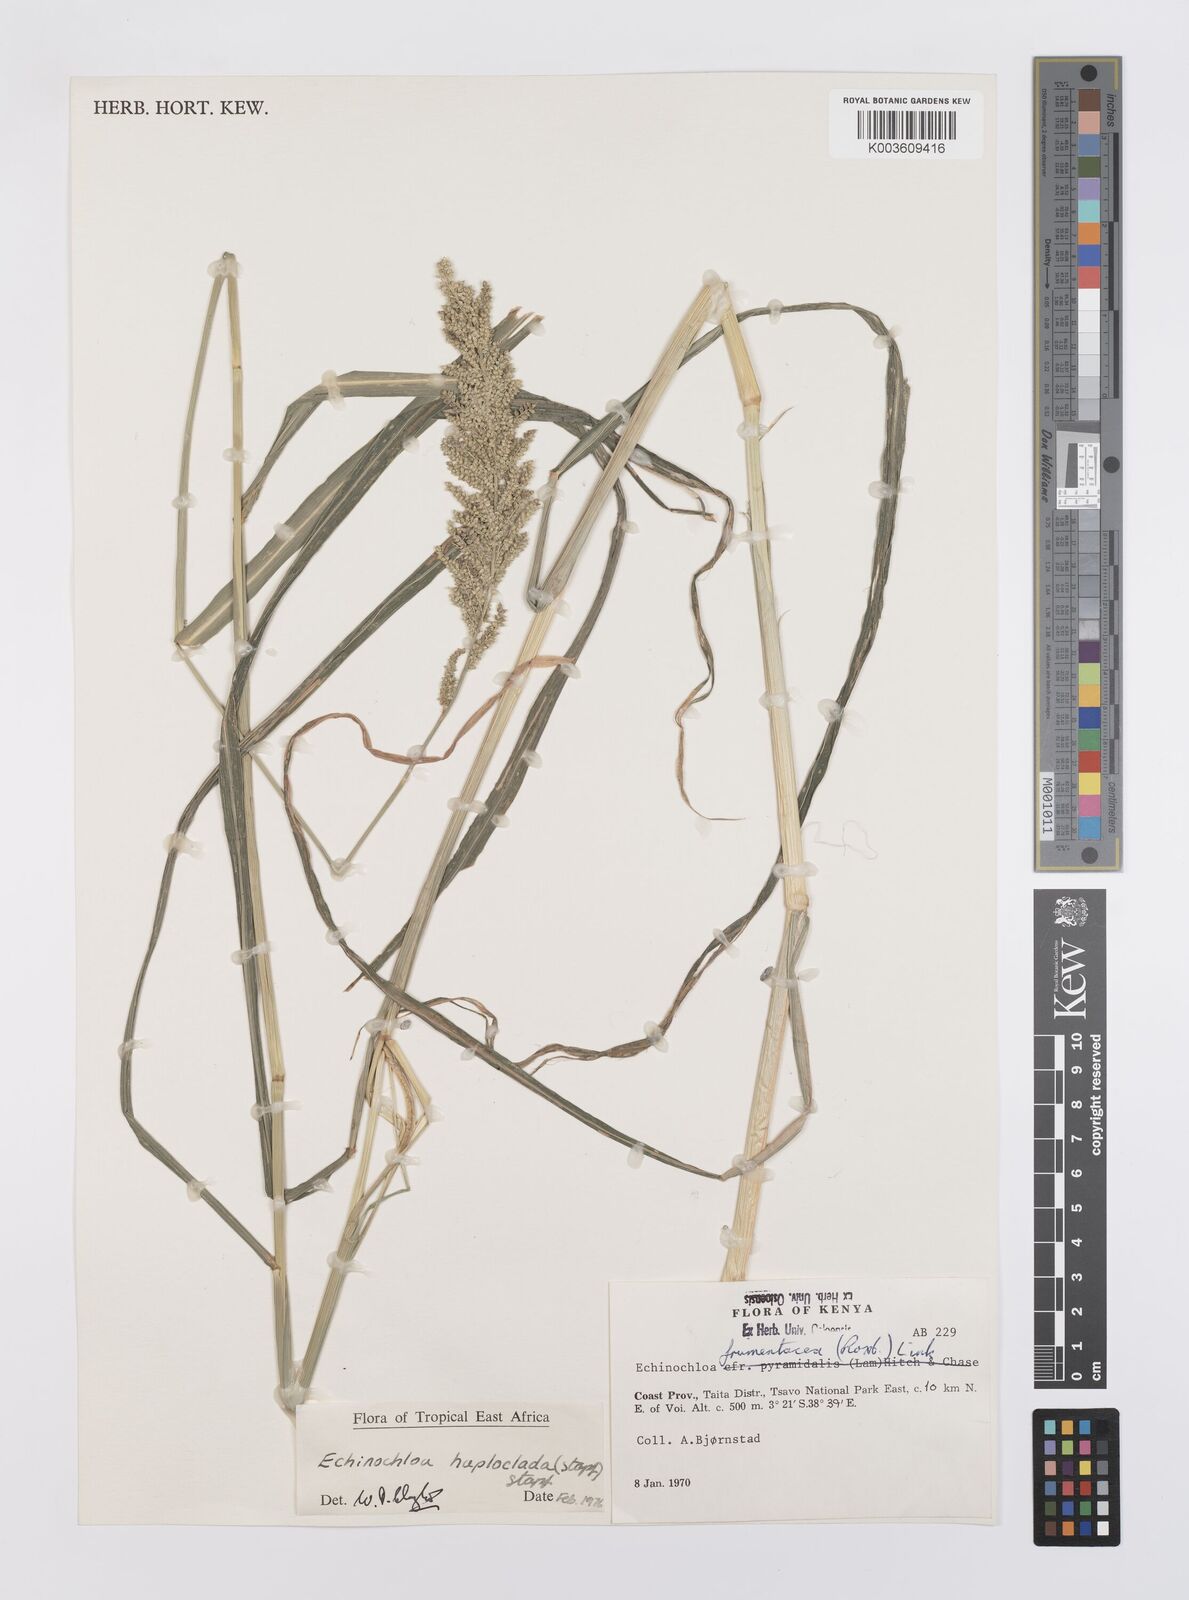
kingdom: Plantae
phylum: Tracheophyta
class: Liliopsida
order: Poales
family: Poaceae
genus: Echinochloa
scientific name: Echinochloa haploclada
